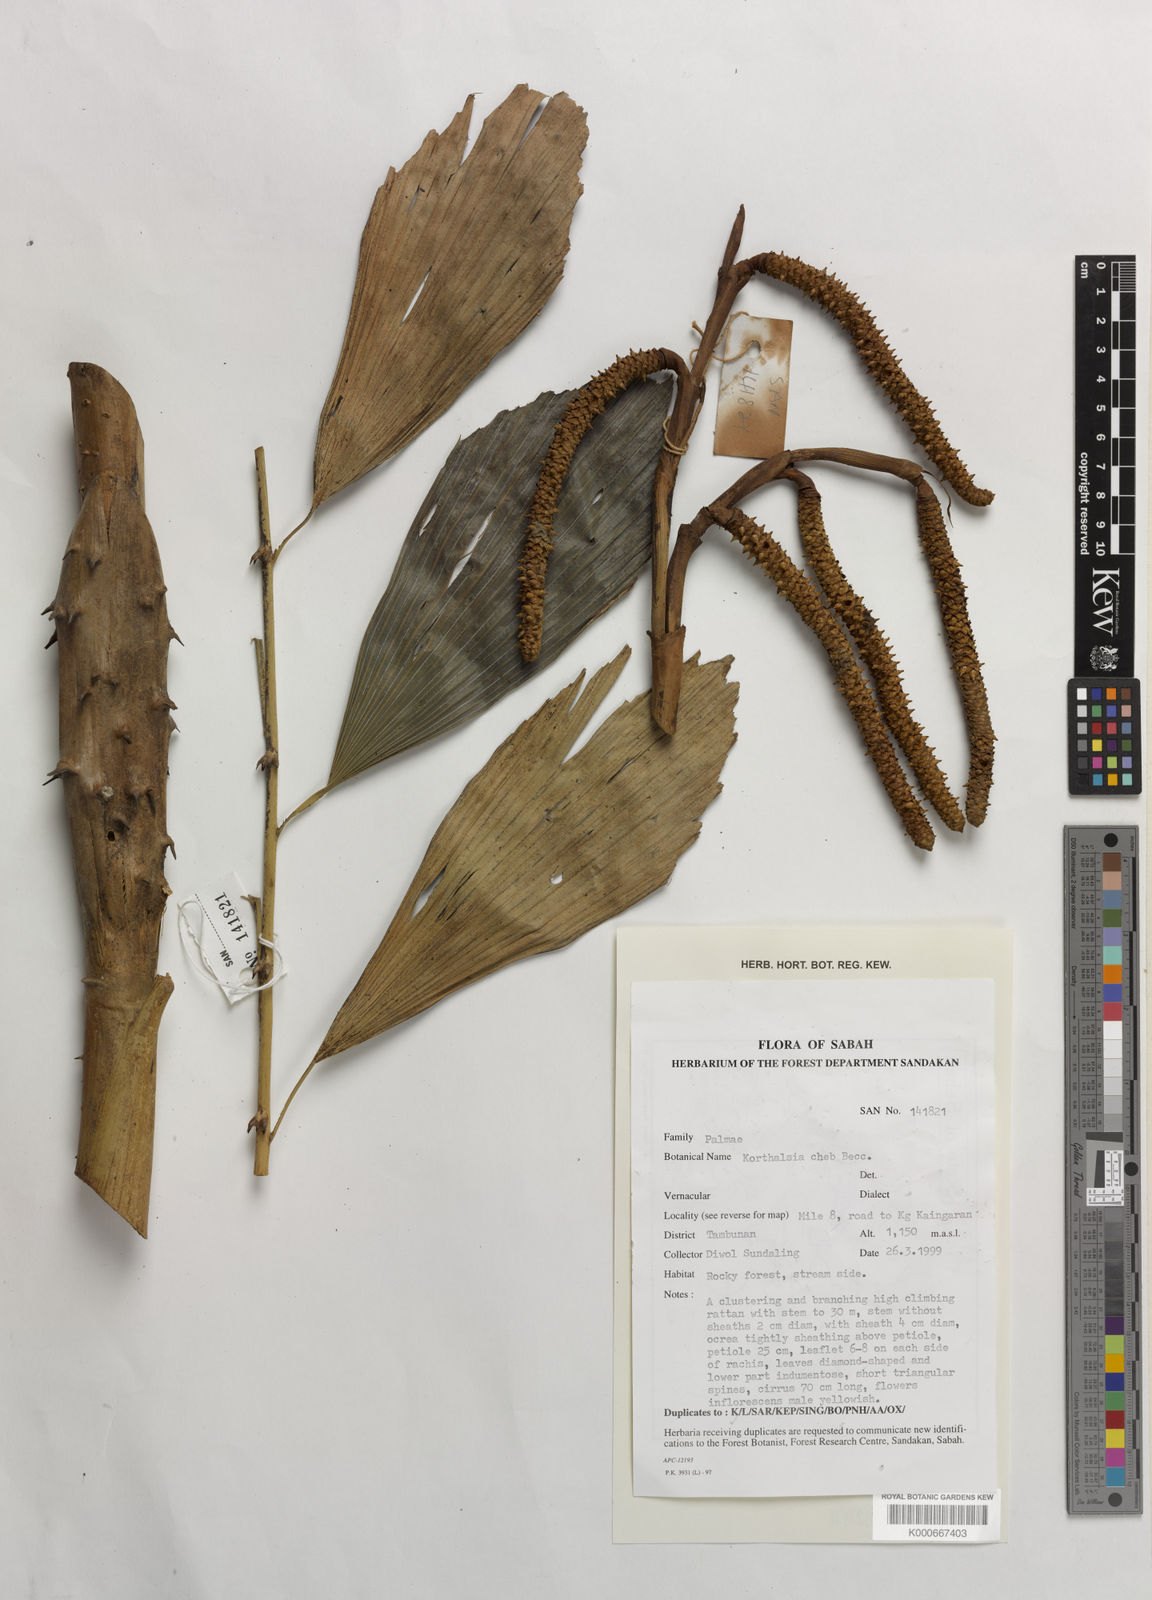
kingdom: Plantae
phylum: Tracheophyta
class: Liliopsida
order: Arecales
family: Arecaceae
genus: Korthalsia
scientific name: Korthalsia cheb
